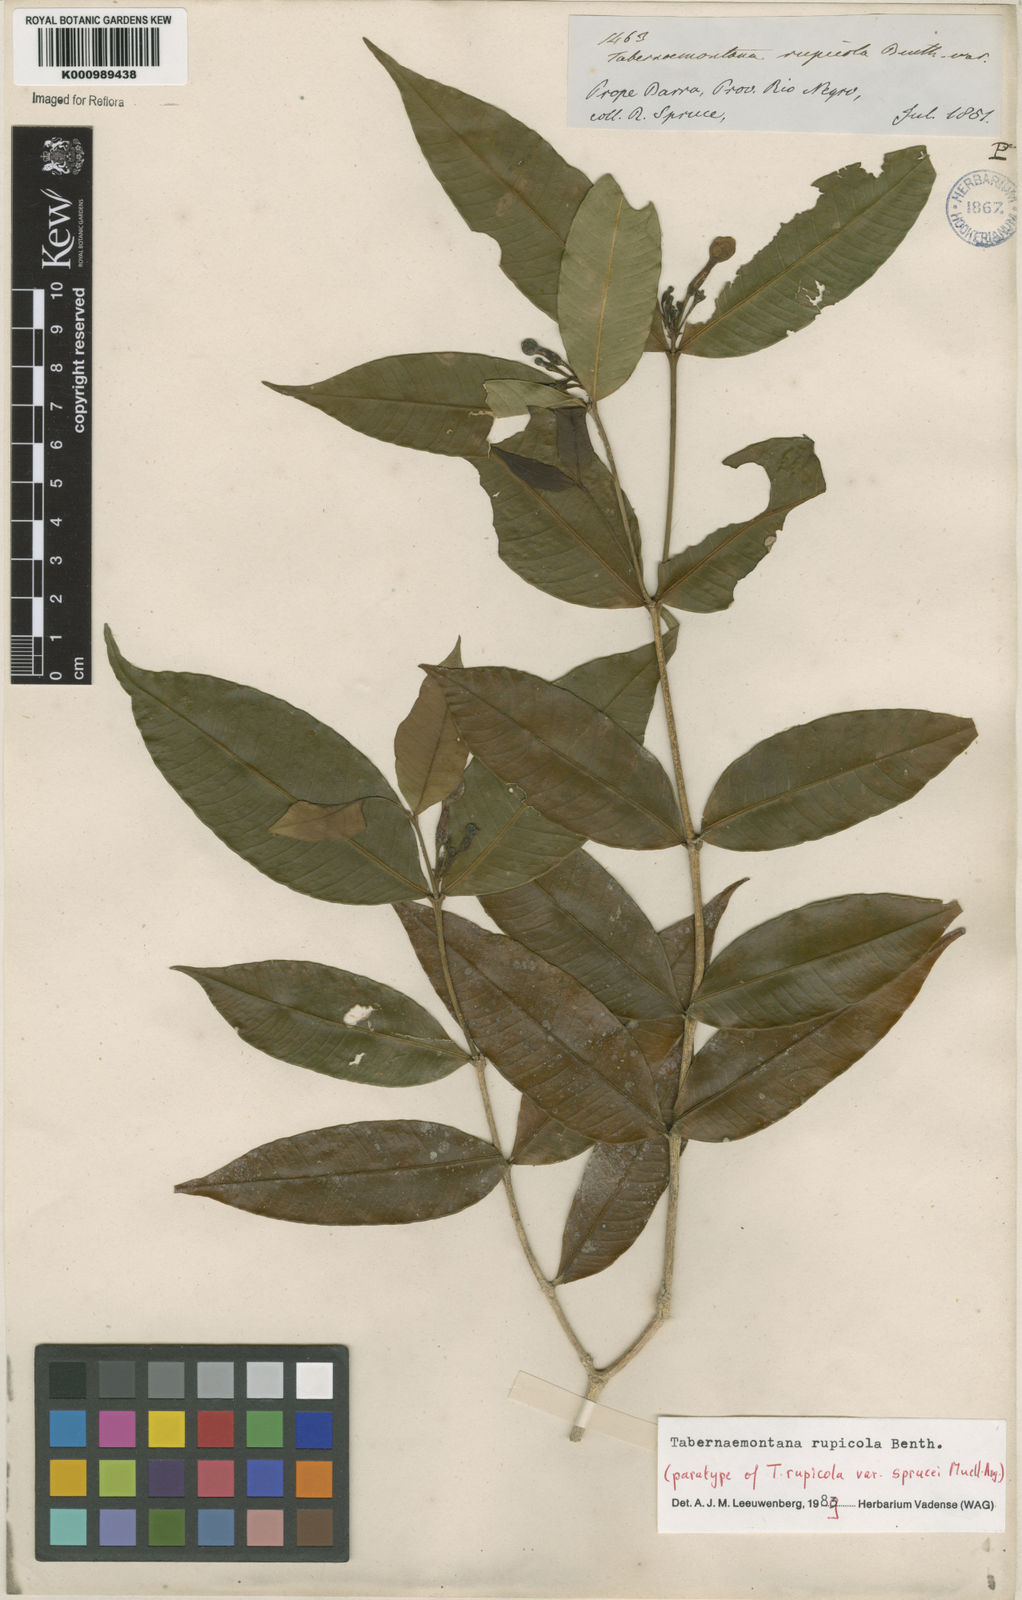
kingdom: Plantae
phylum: Tracheophyta
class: Magnoliopsida
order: Gentianales
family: Apocynaceae
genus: Tabernaemontana
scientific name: Tabernaemontana rupicola
